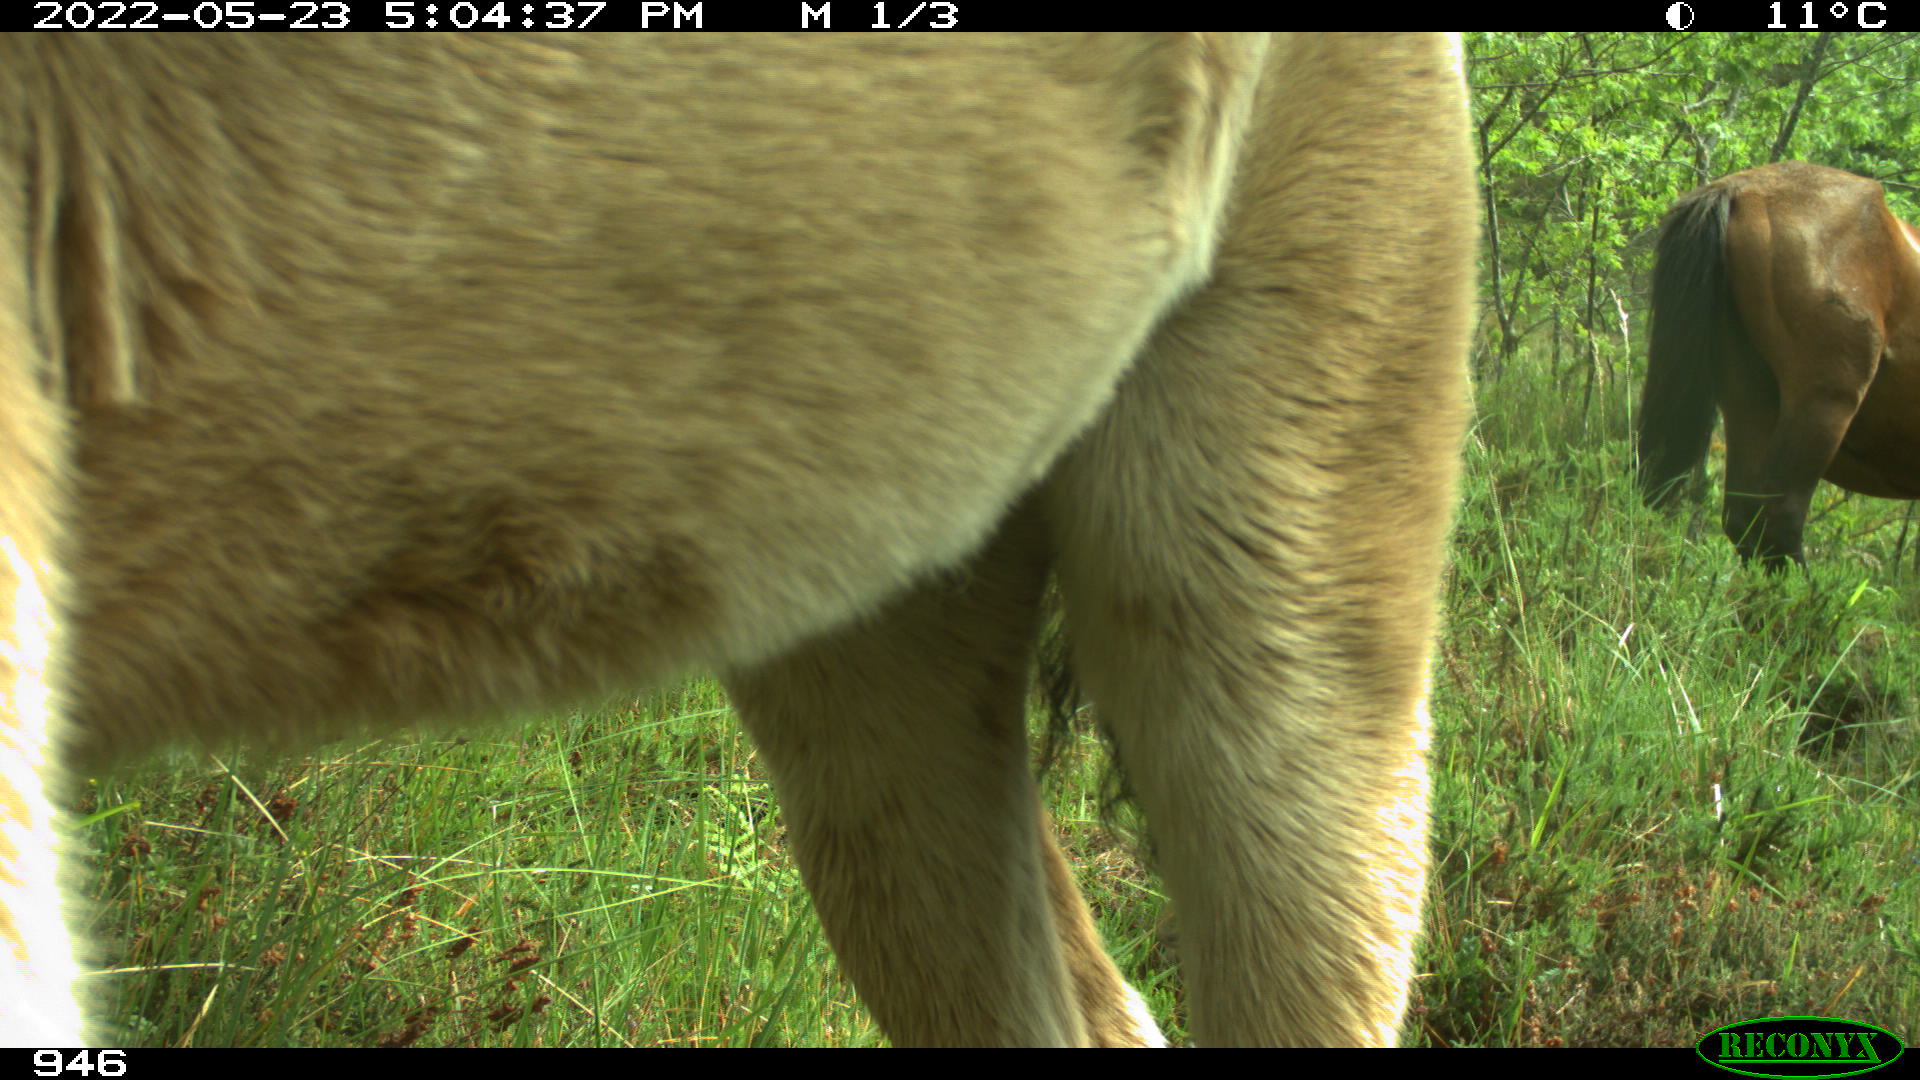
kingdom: Animalia
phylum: Chordata
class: Mammalia
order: Perissodactyla
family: Equidae
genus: Equus
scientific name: Equus caballus
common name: Horse
